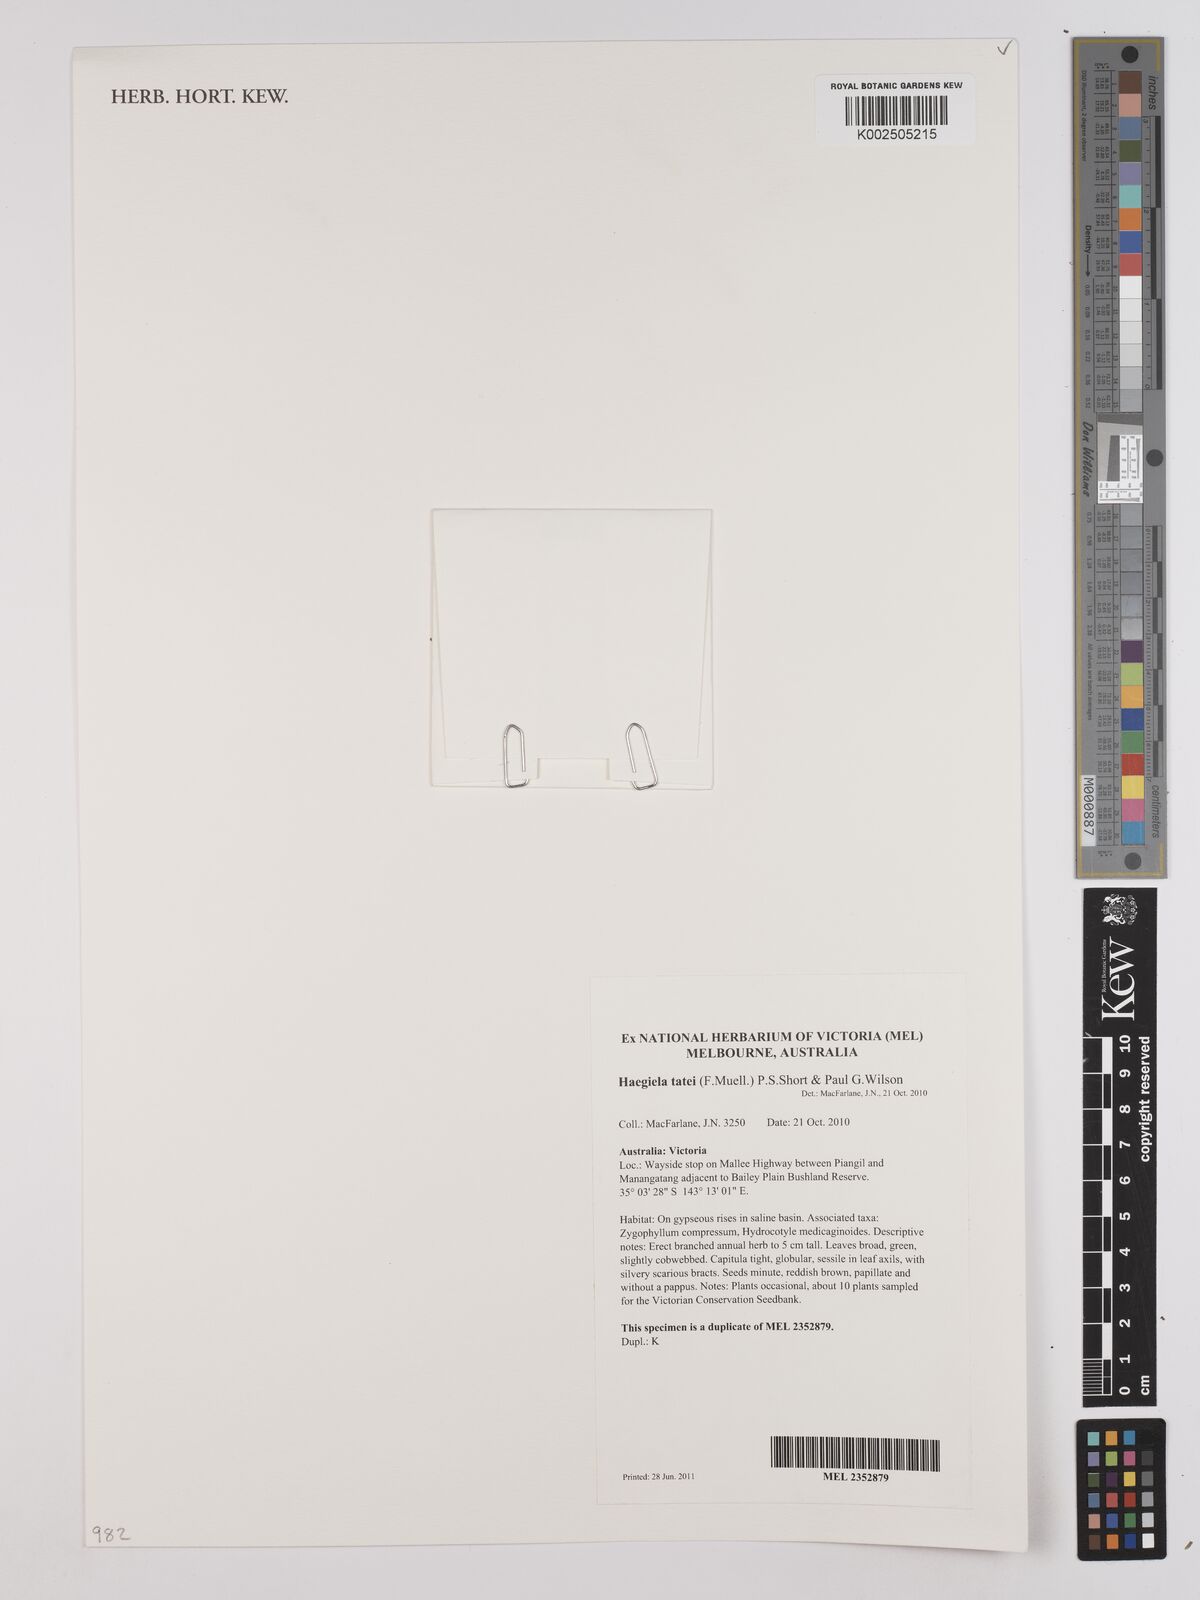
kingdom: Plantae
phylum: Tracheophyta
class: Magnoliopsida
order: Asterales
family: Asteraceae
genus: Haegiela
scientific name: Haegiela tatei
